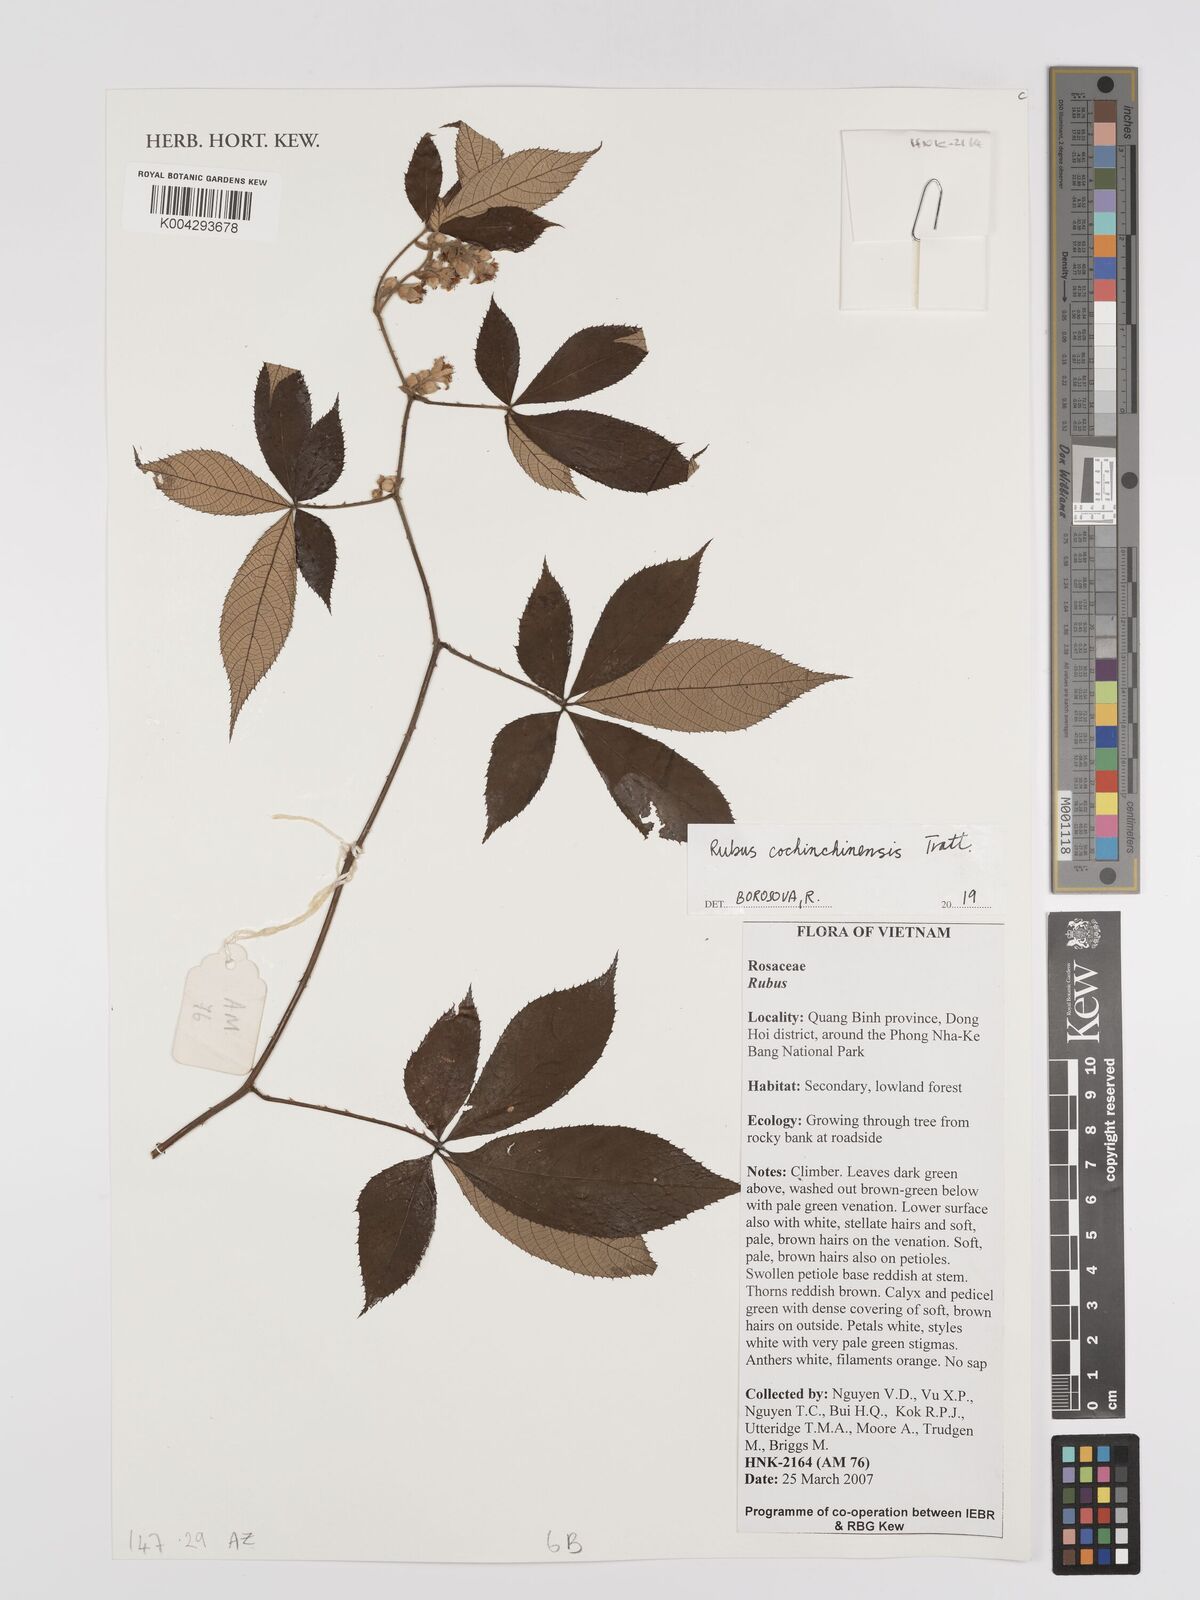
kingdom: Plantae
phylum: Tracheophyta
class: Magnoliopsida
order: Rosales
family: Rosaceae
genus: Rubus
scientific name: Rubus cochinchinensis
